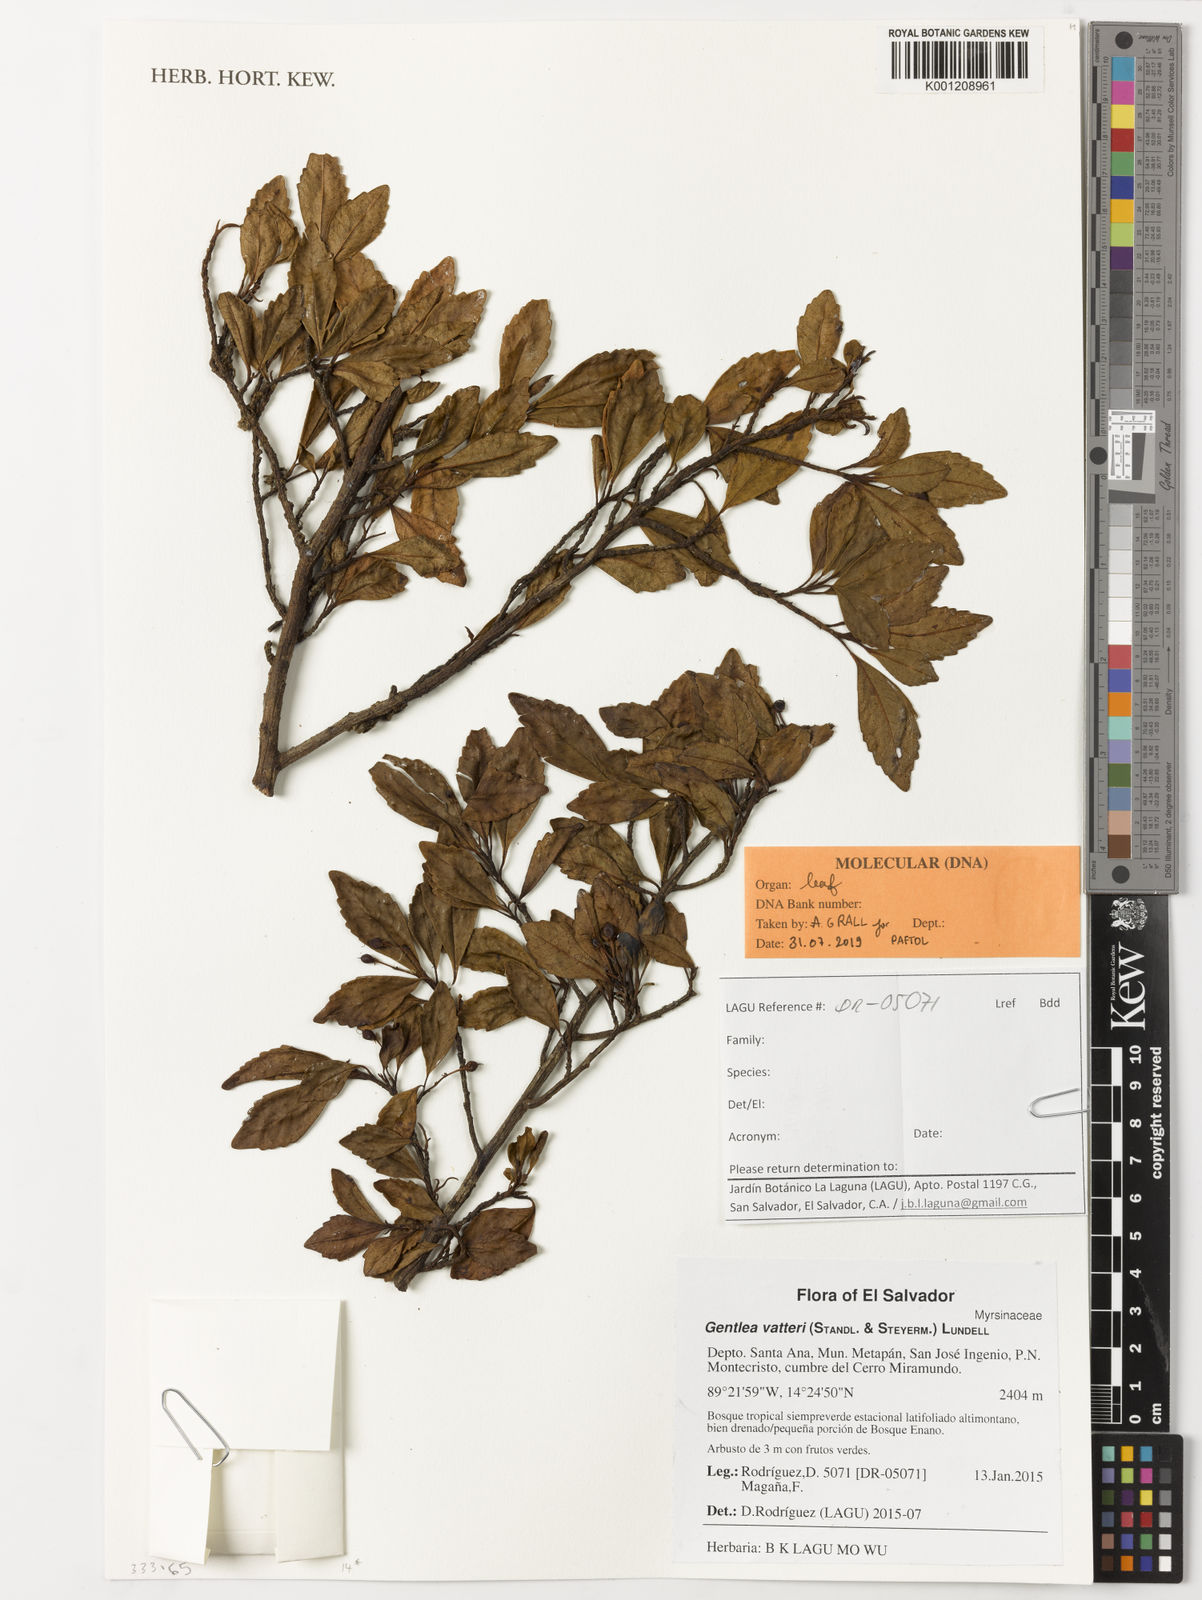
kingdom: Plantae
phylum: Tracheophyta
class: Magnoliopsida
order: Ericales
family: Primulaceae
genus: Gentlea
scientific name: Gentlea vatteri
